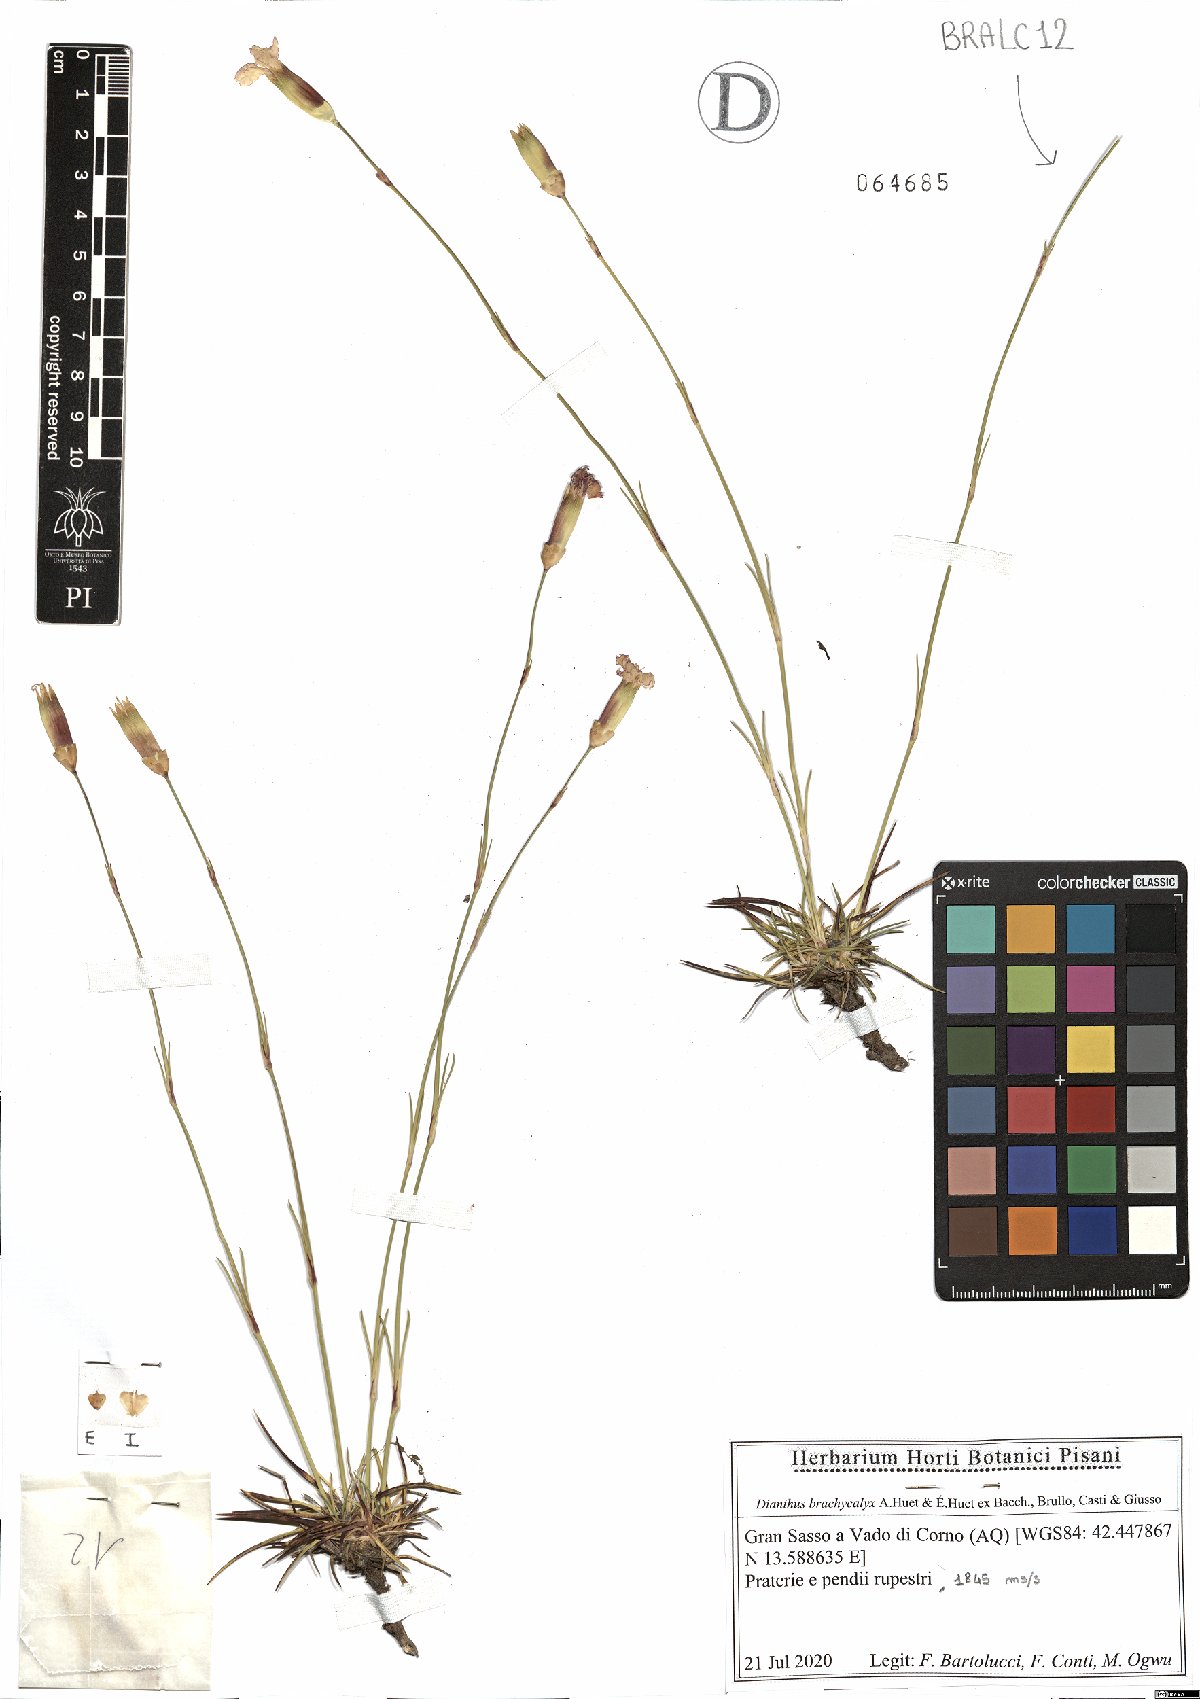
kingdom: Plantae
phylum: Tracheophyta
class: Magnoliopsida
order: Caryophyllales
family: Caryophyllaceae
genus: Dianthus
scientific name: Dianthus brachycalyx
